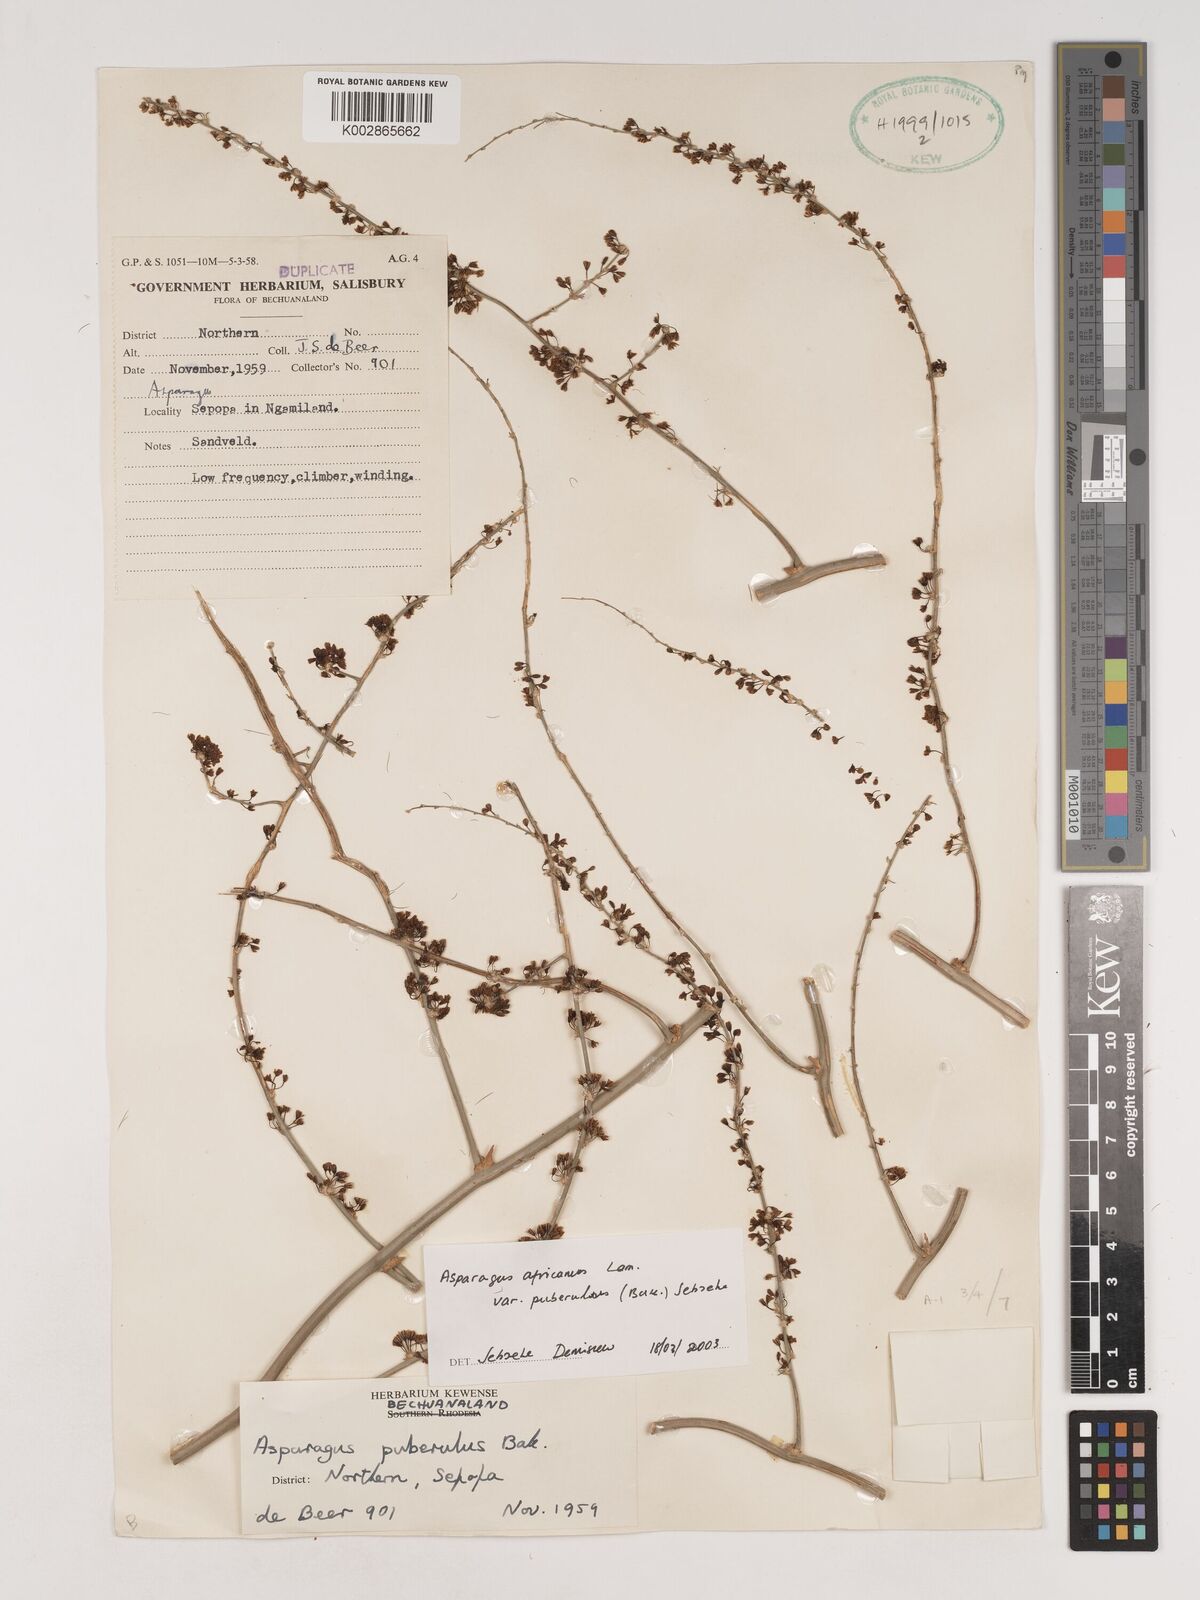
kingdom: Plantae
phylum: Tracheophyta
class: Liliopsida
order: Asparagales
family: Asparagaceae
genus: Asparagus
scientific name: Asparagus africanus
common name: Asparagus-fern
